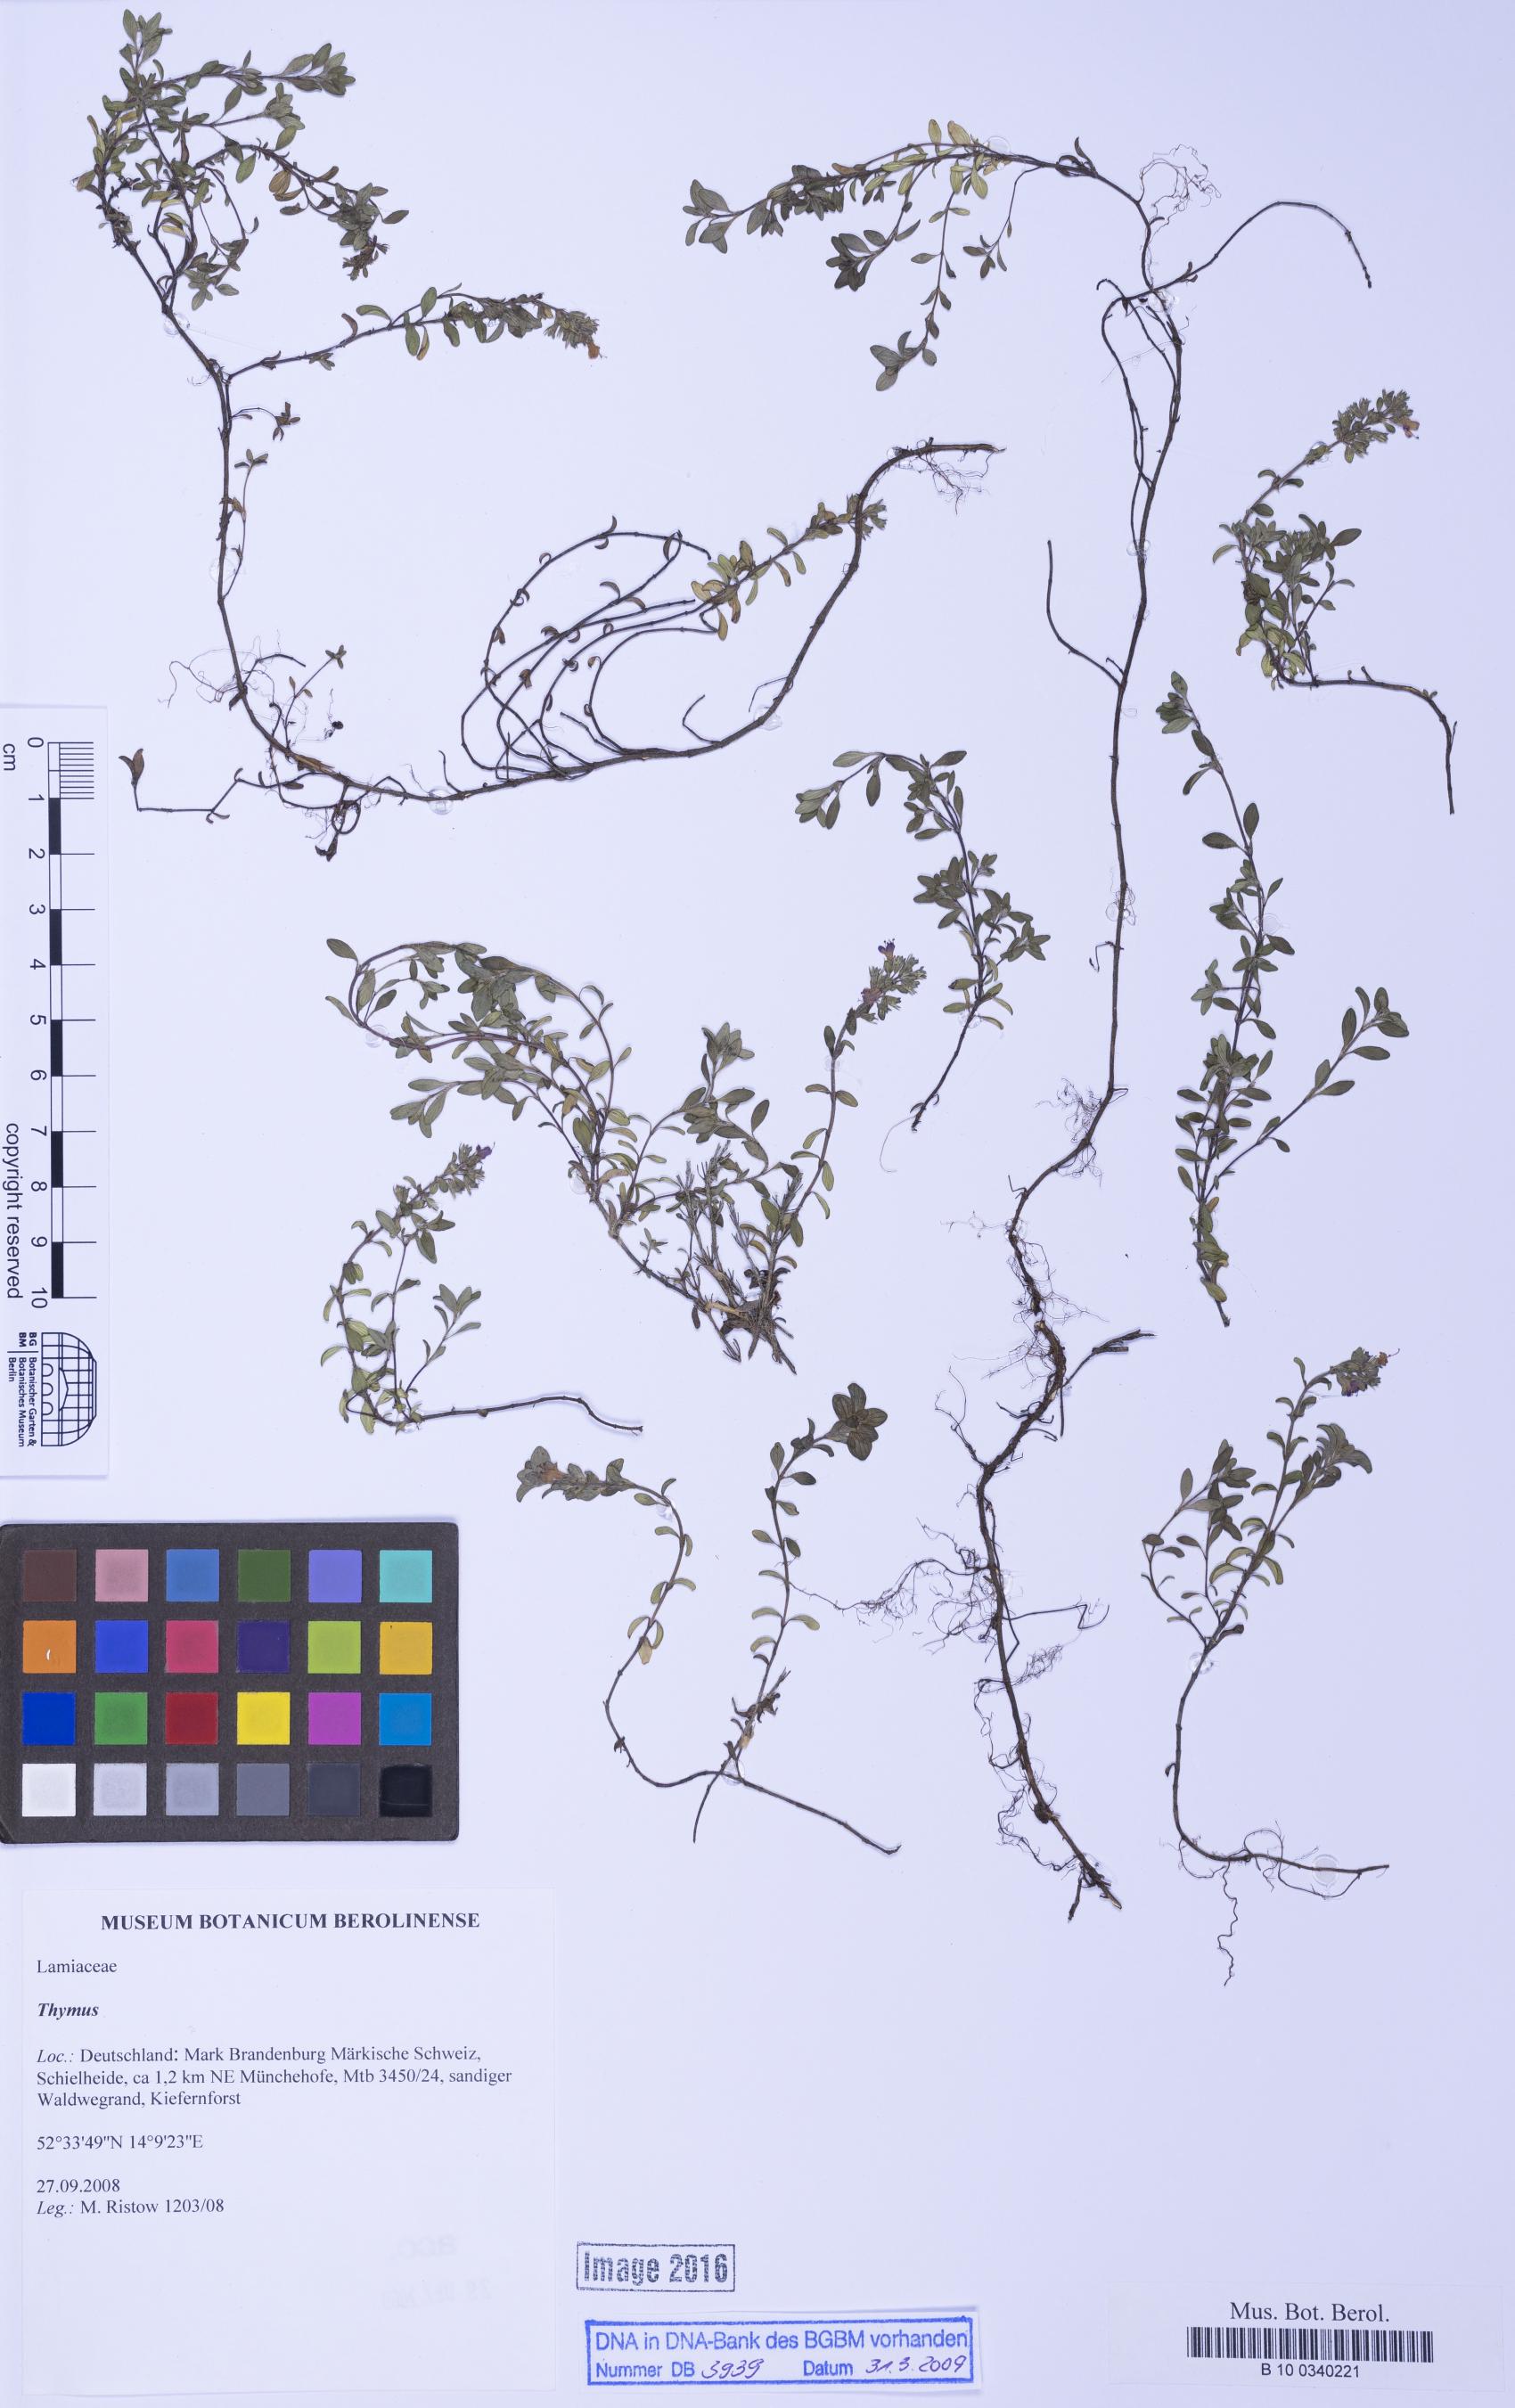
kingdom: Plantae
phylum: Tracheophyta
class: Magnoliopsida
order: Lamiales
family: Lamiaceae
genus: Thymus
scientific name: Thymus
